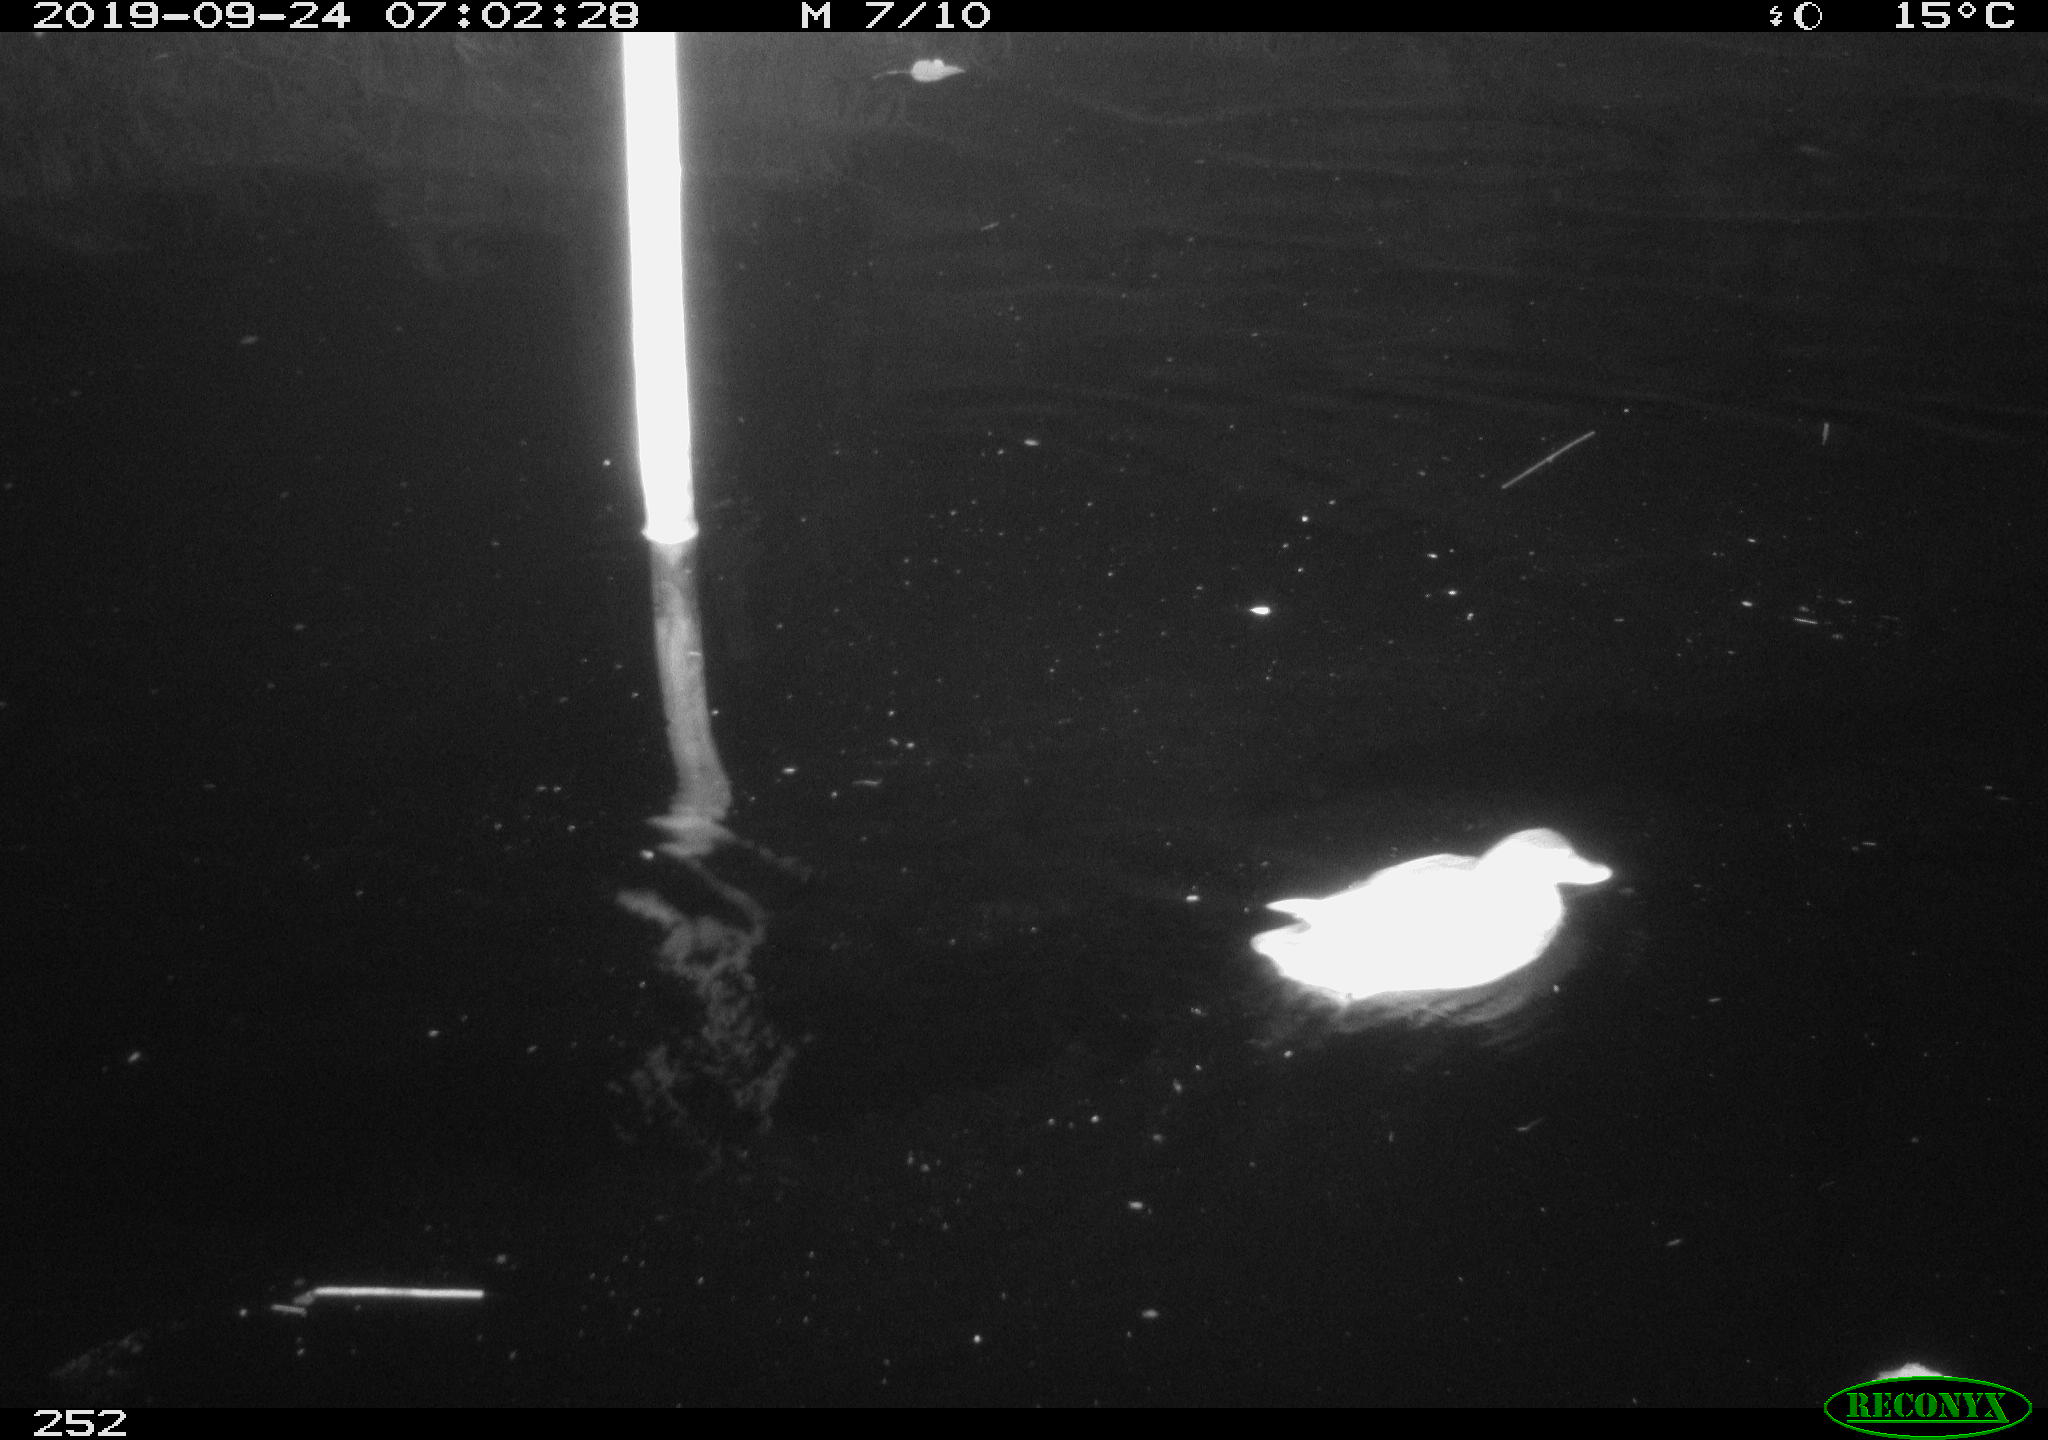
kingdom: Animalia
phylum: Chordata
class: Aves
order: Anseriformes
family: Anatidae
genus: Anas
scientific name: Anas platyrhynchos
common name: Mallard
